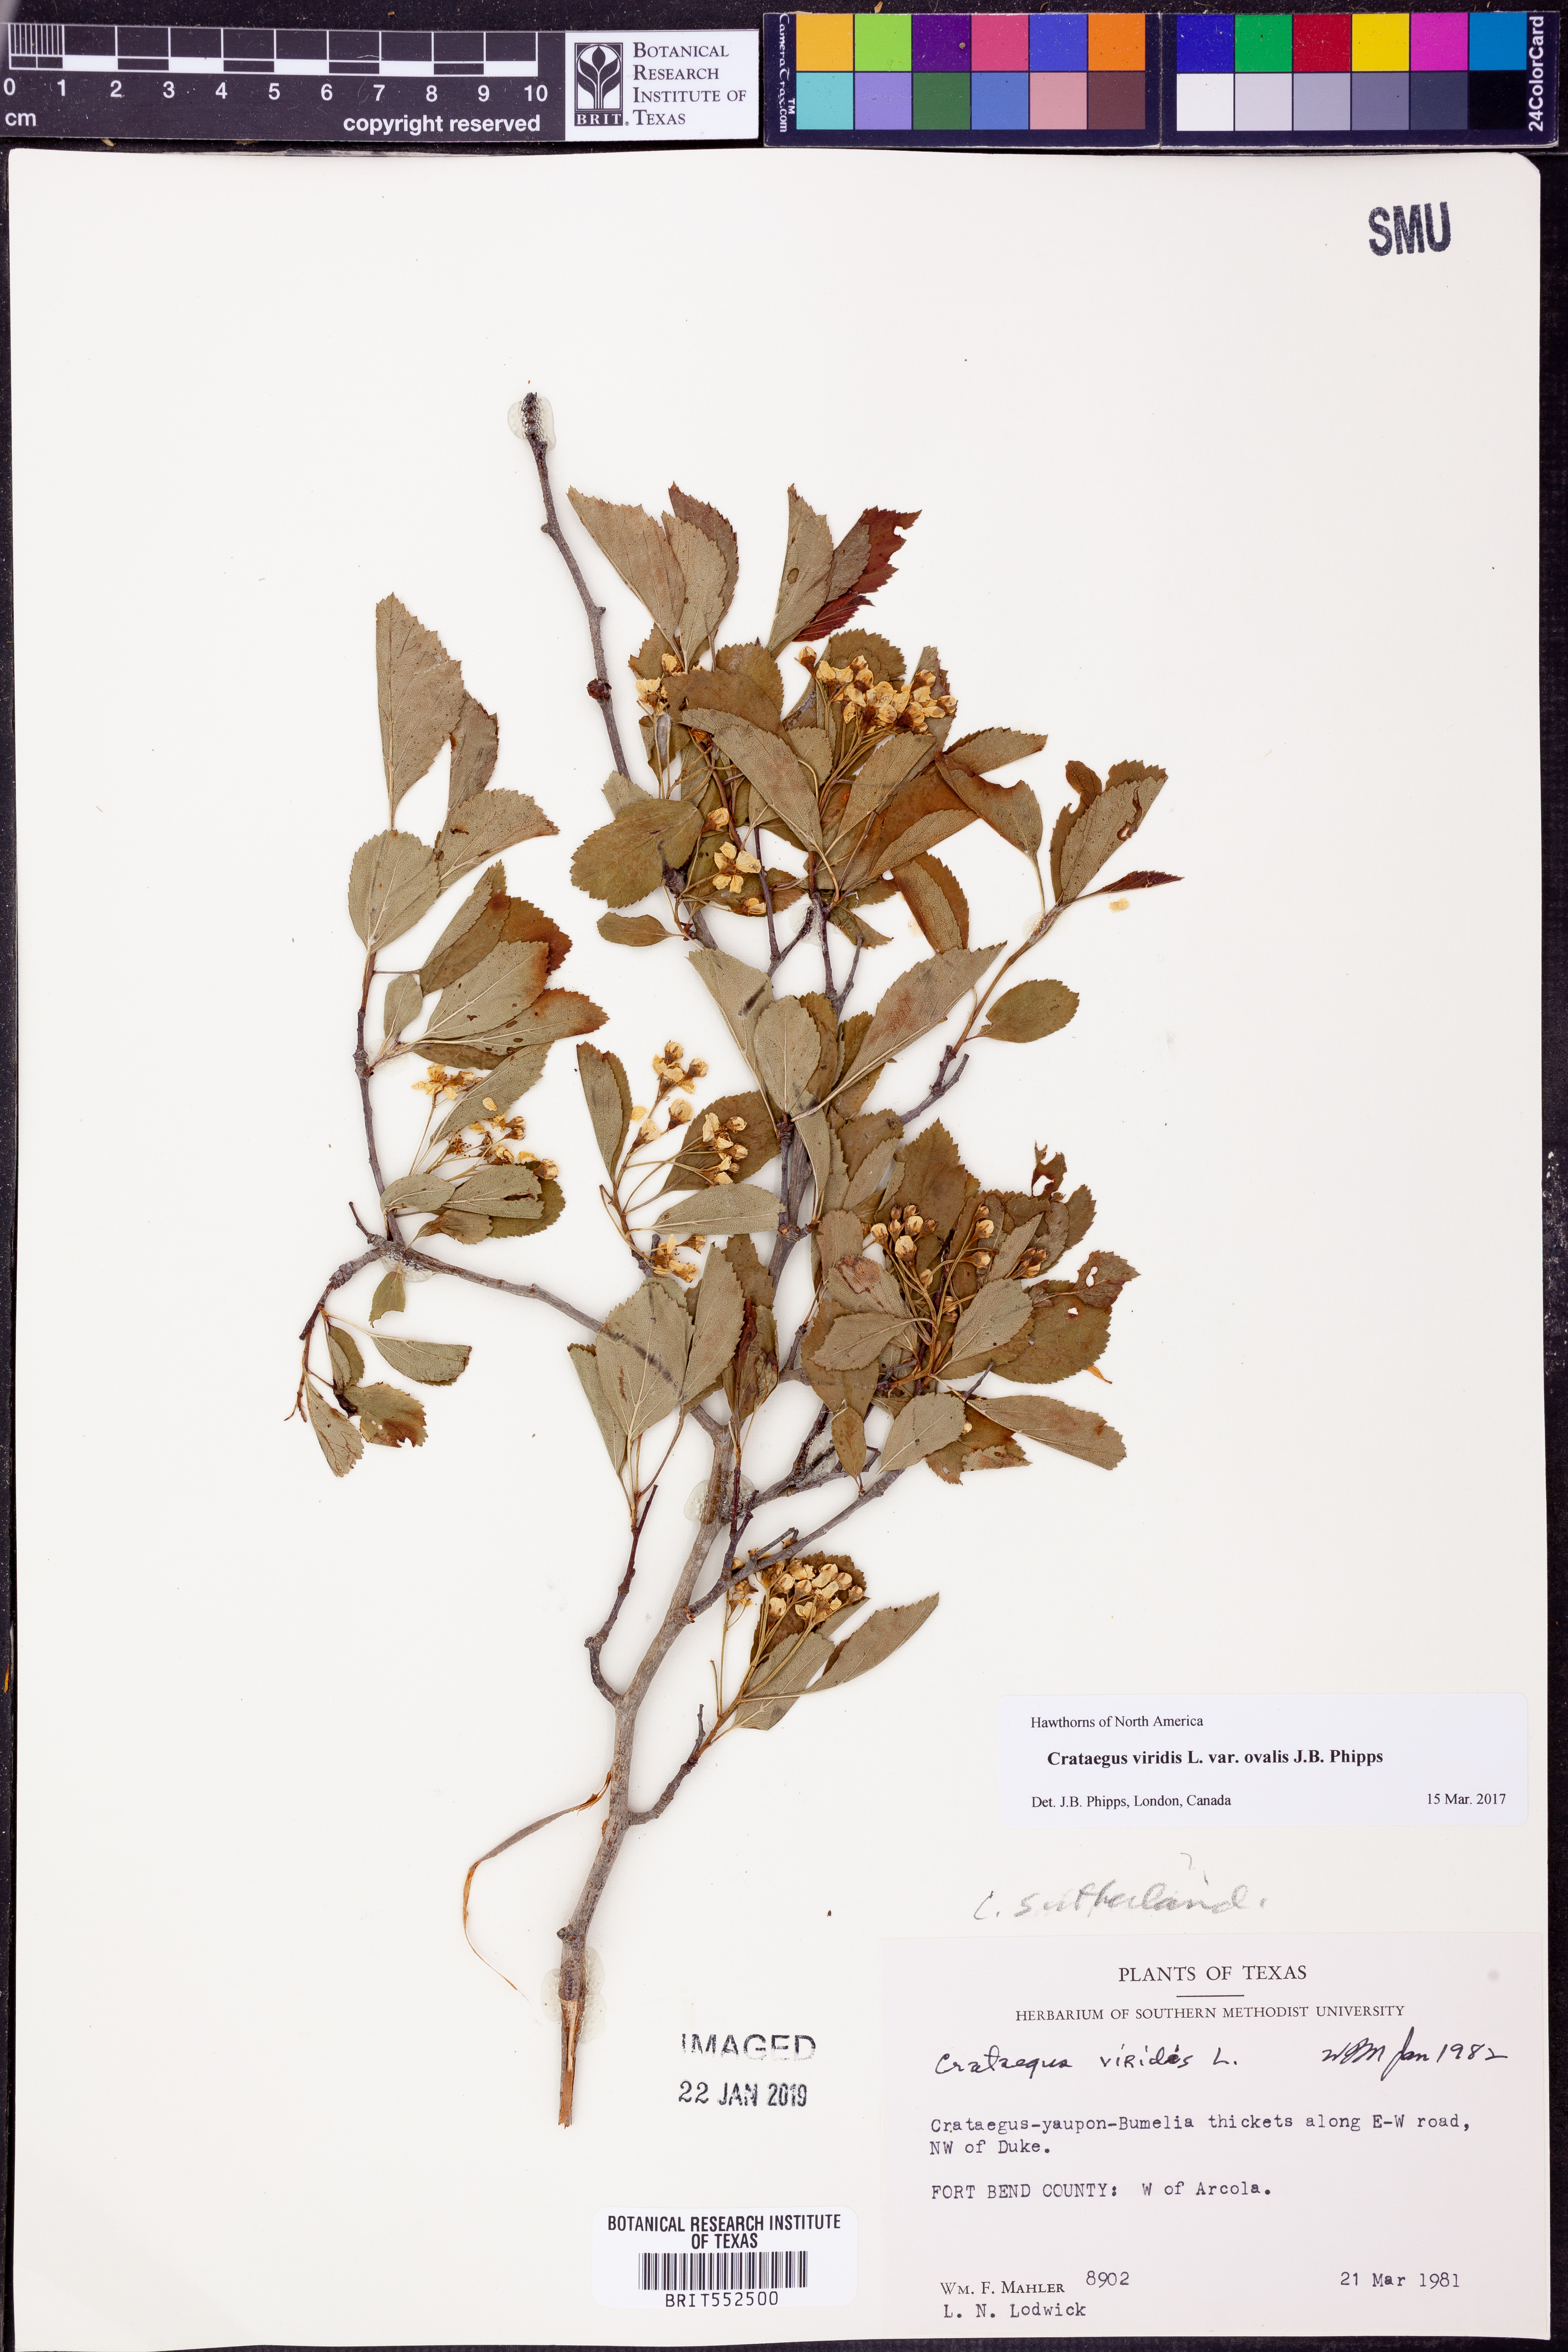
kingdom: Plantae
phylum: Tracheophyta
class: Magnoliopsida
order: Rosales
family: Rosaceae
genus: Crataegus
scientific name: Crataegus viridis
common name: Southernthorn
